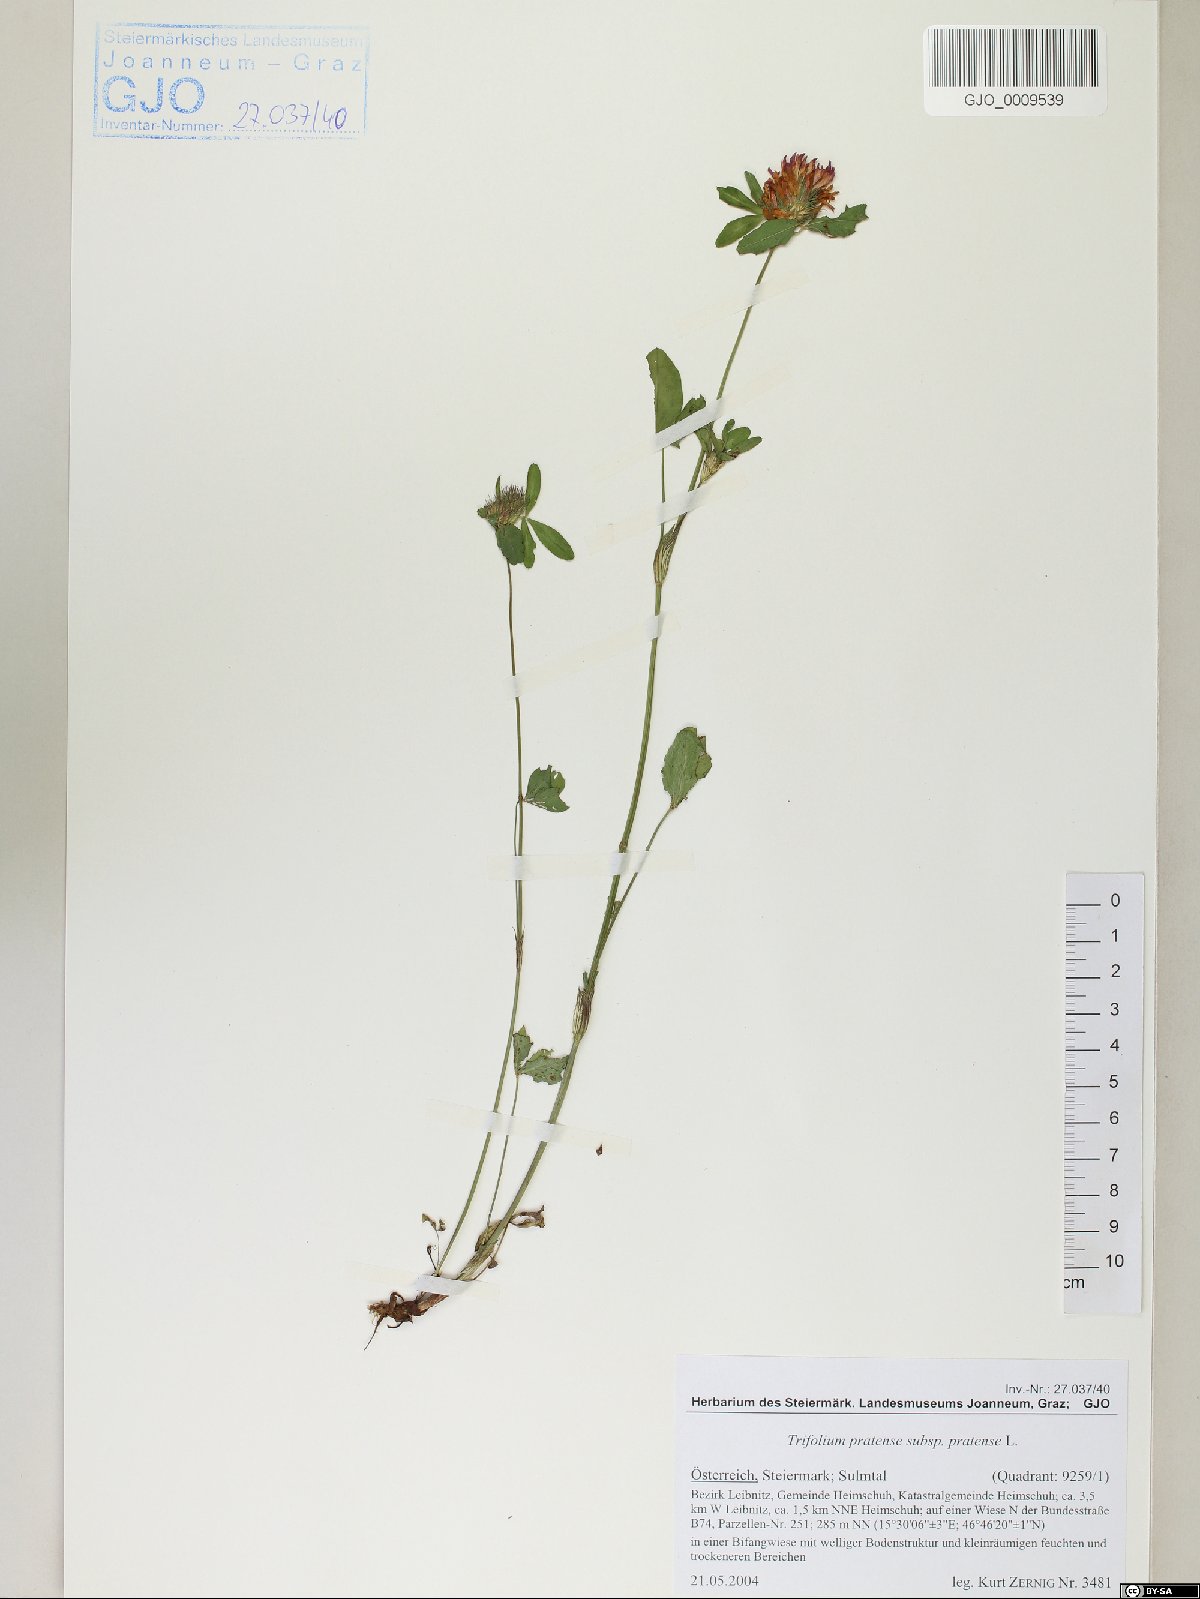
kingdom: Plantae
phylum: Tracheophyta
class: Magnoliopsida
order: Fabales
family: Fabaceae
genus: Trifolium
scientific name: Trifolium pratense
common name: Red clover
